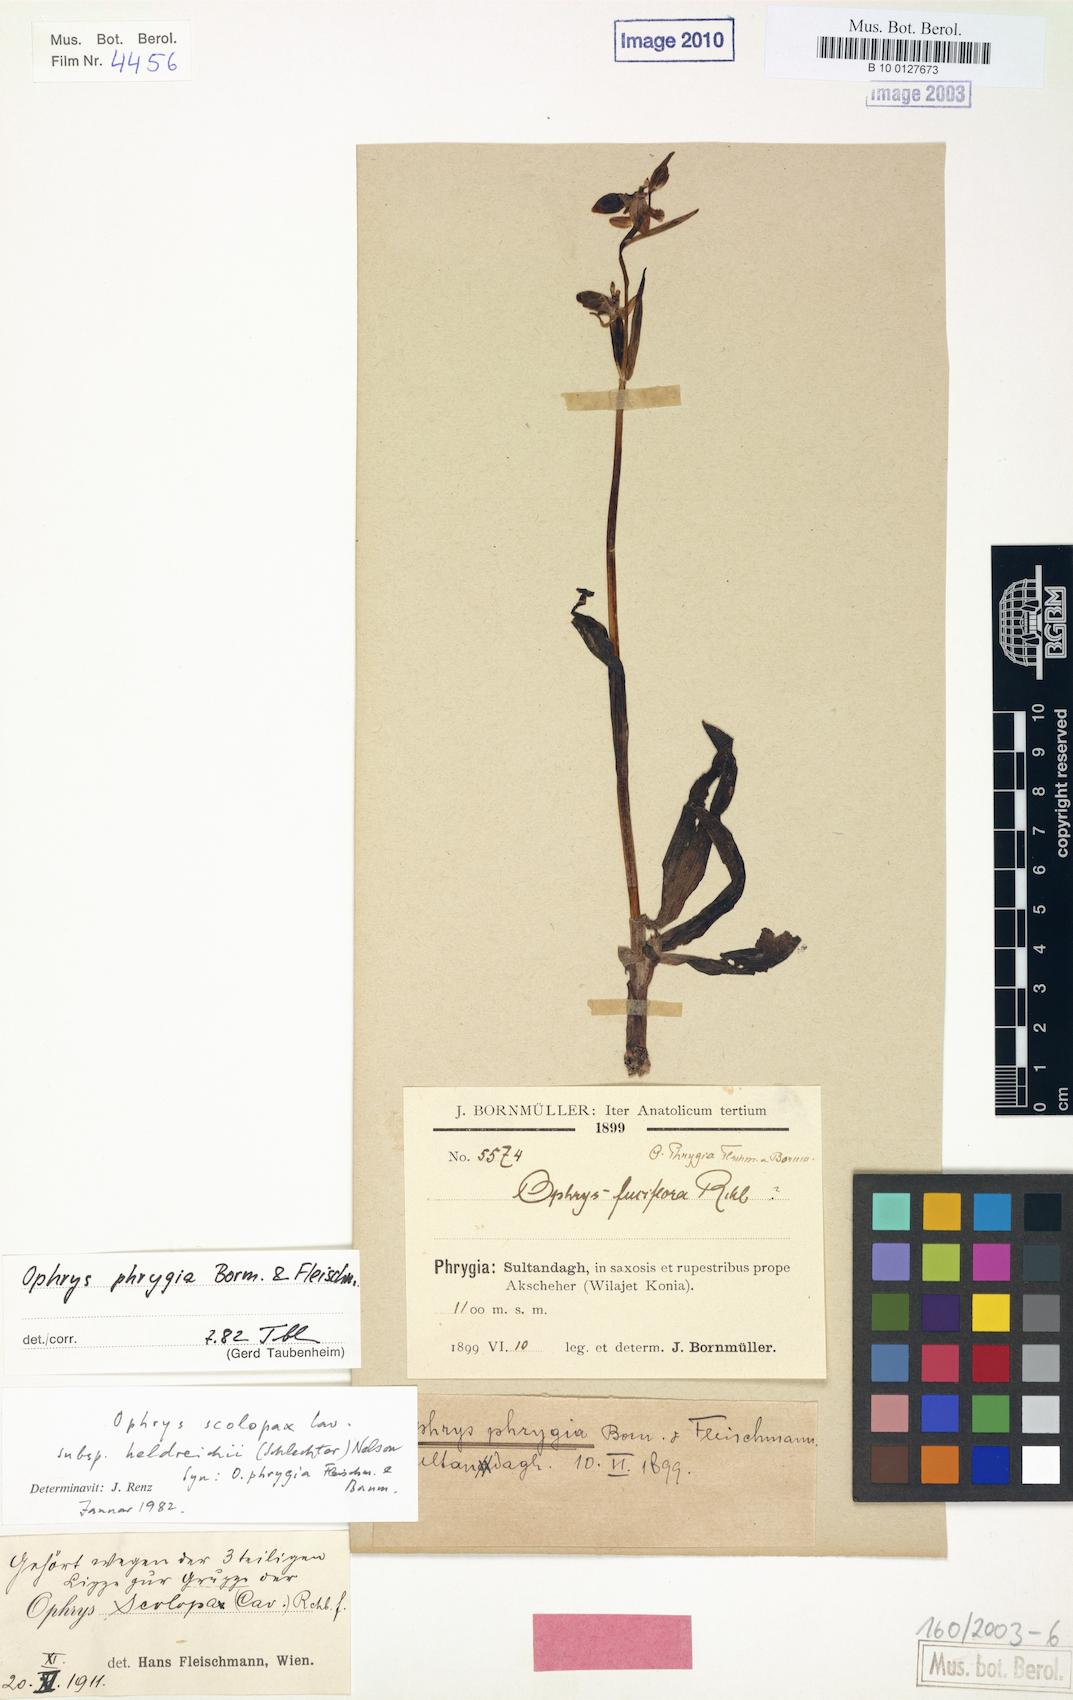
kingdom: Plantae
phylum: Tracheophyta
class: Liliopsida
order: Asparagales
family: Orchidaceae
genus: Ophrys
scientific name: Ophrys scolopax
